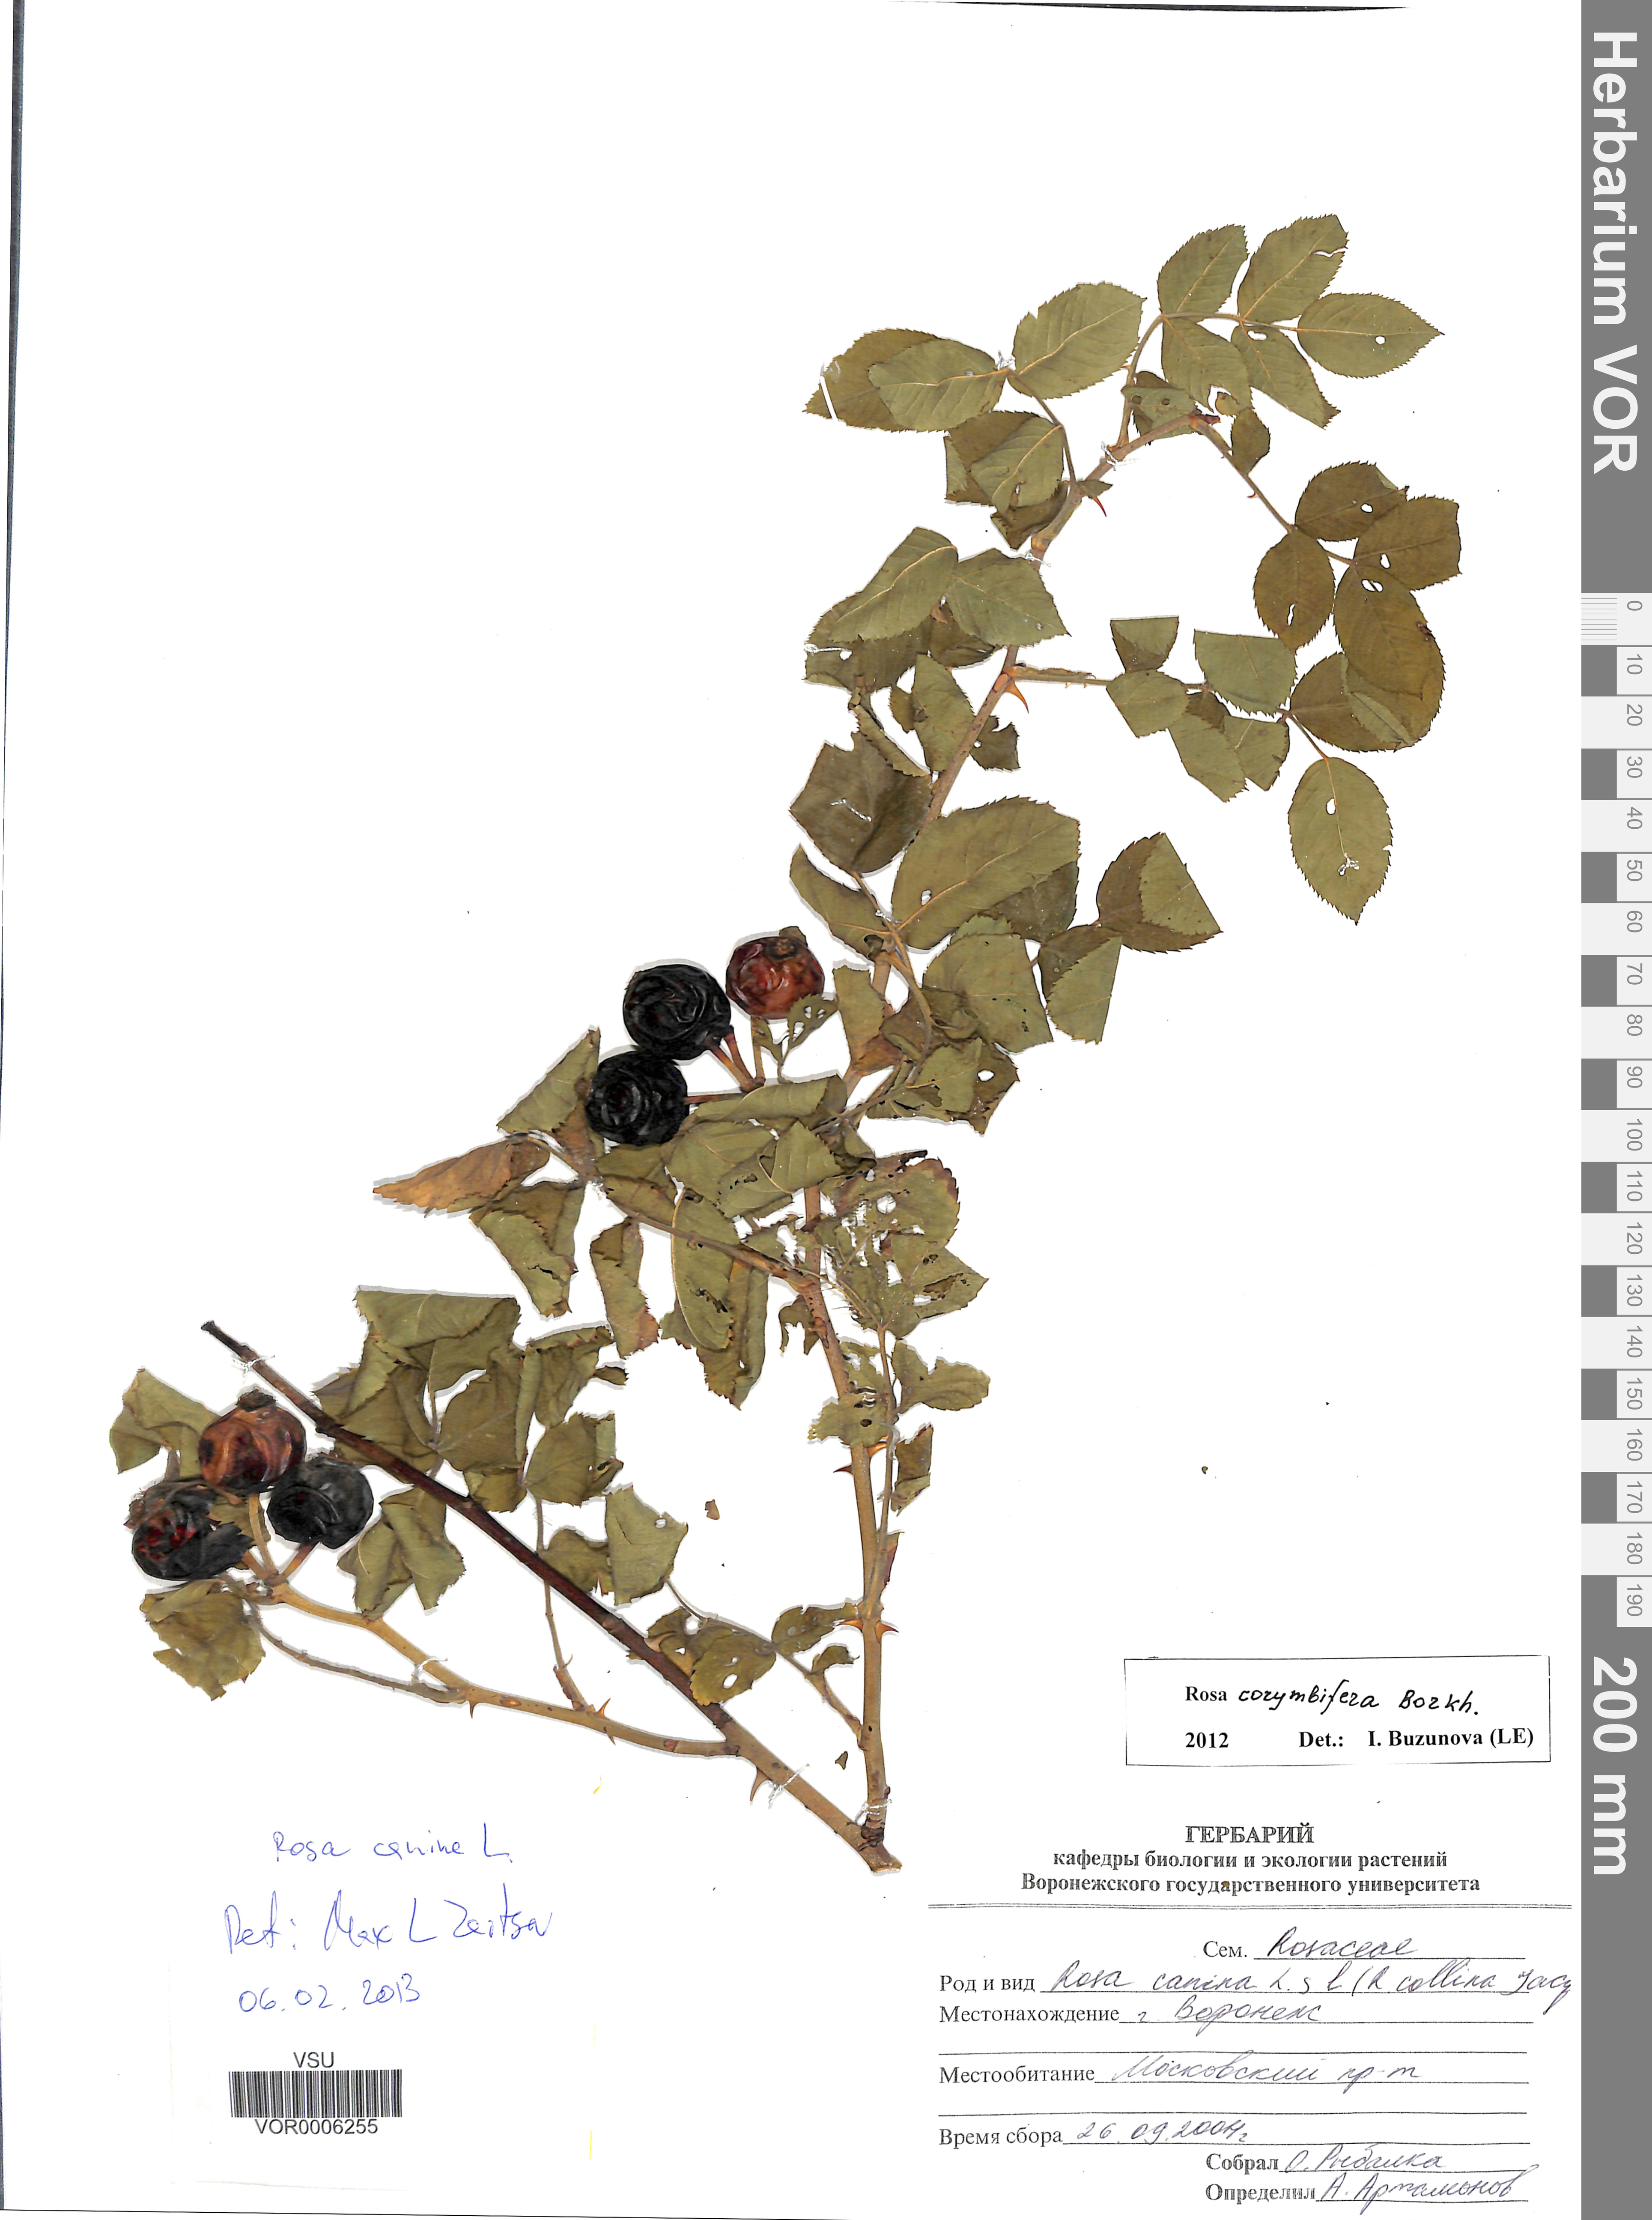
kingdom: Plantae
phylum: Tracheophyta
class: Magnoliopsida
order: Rosales
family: Rosaceae
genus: Rosa
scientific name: Rosa corymbifera
